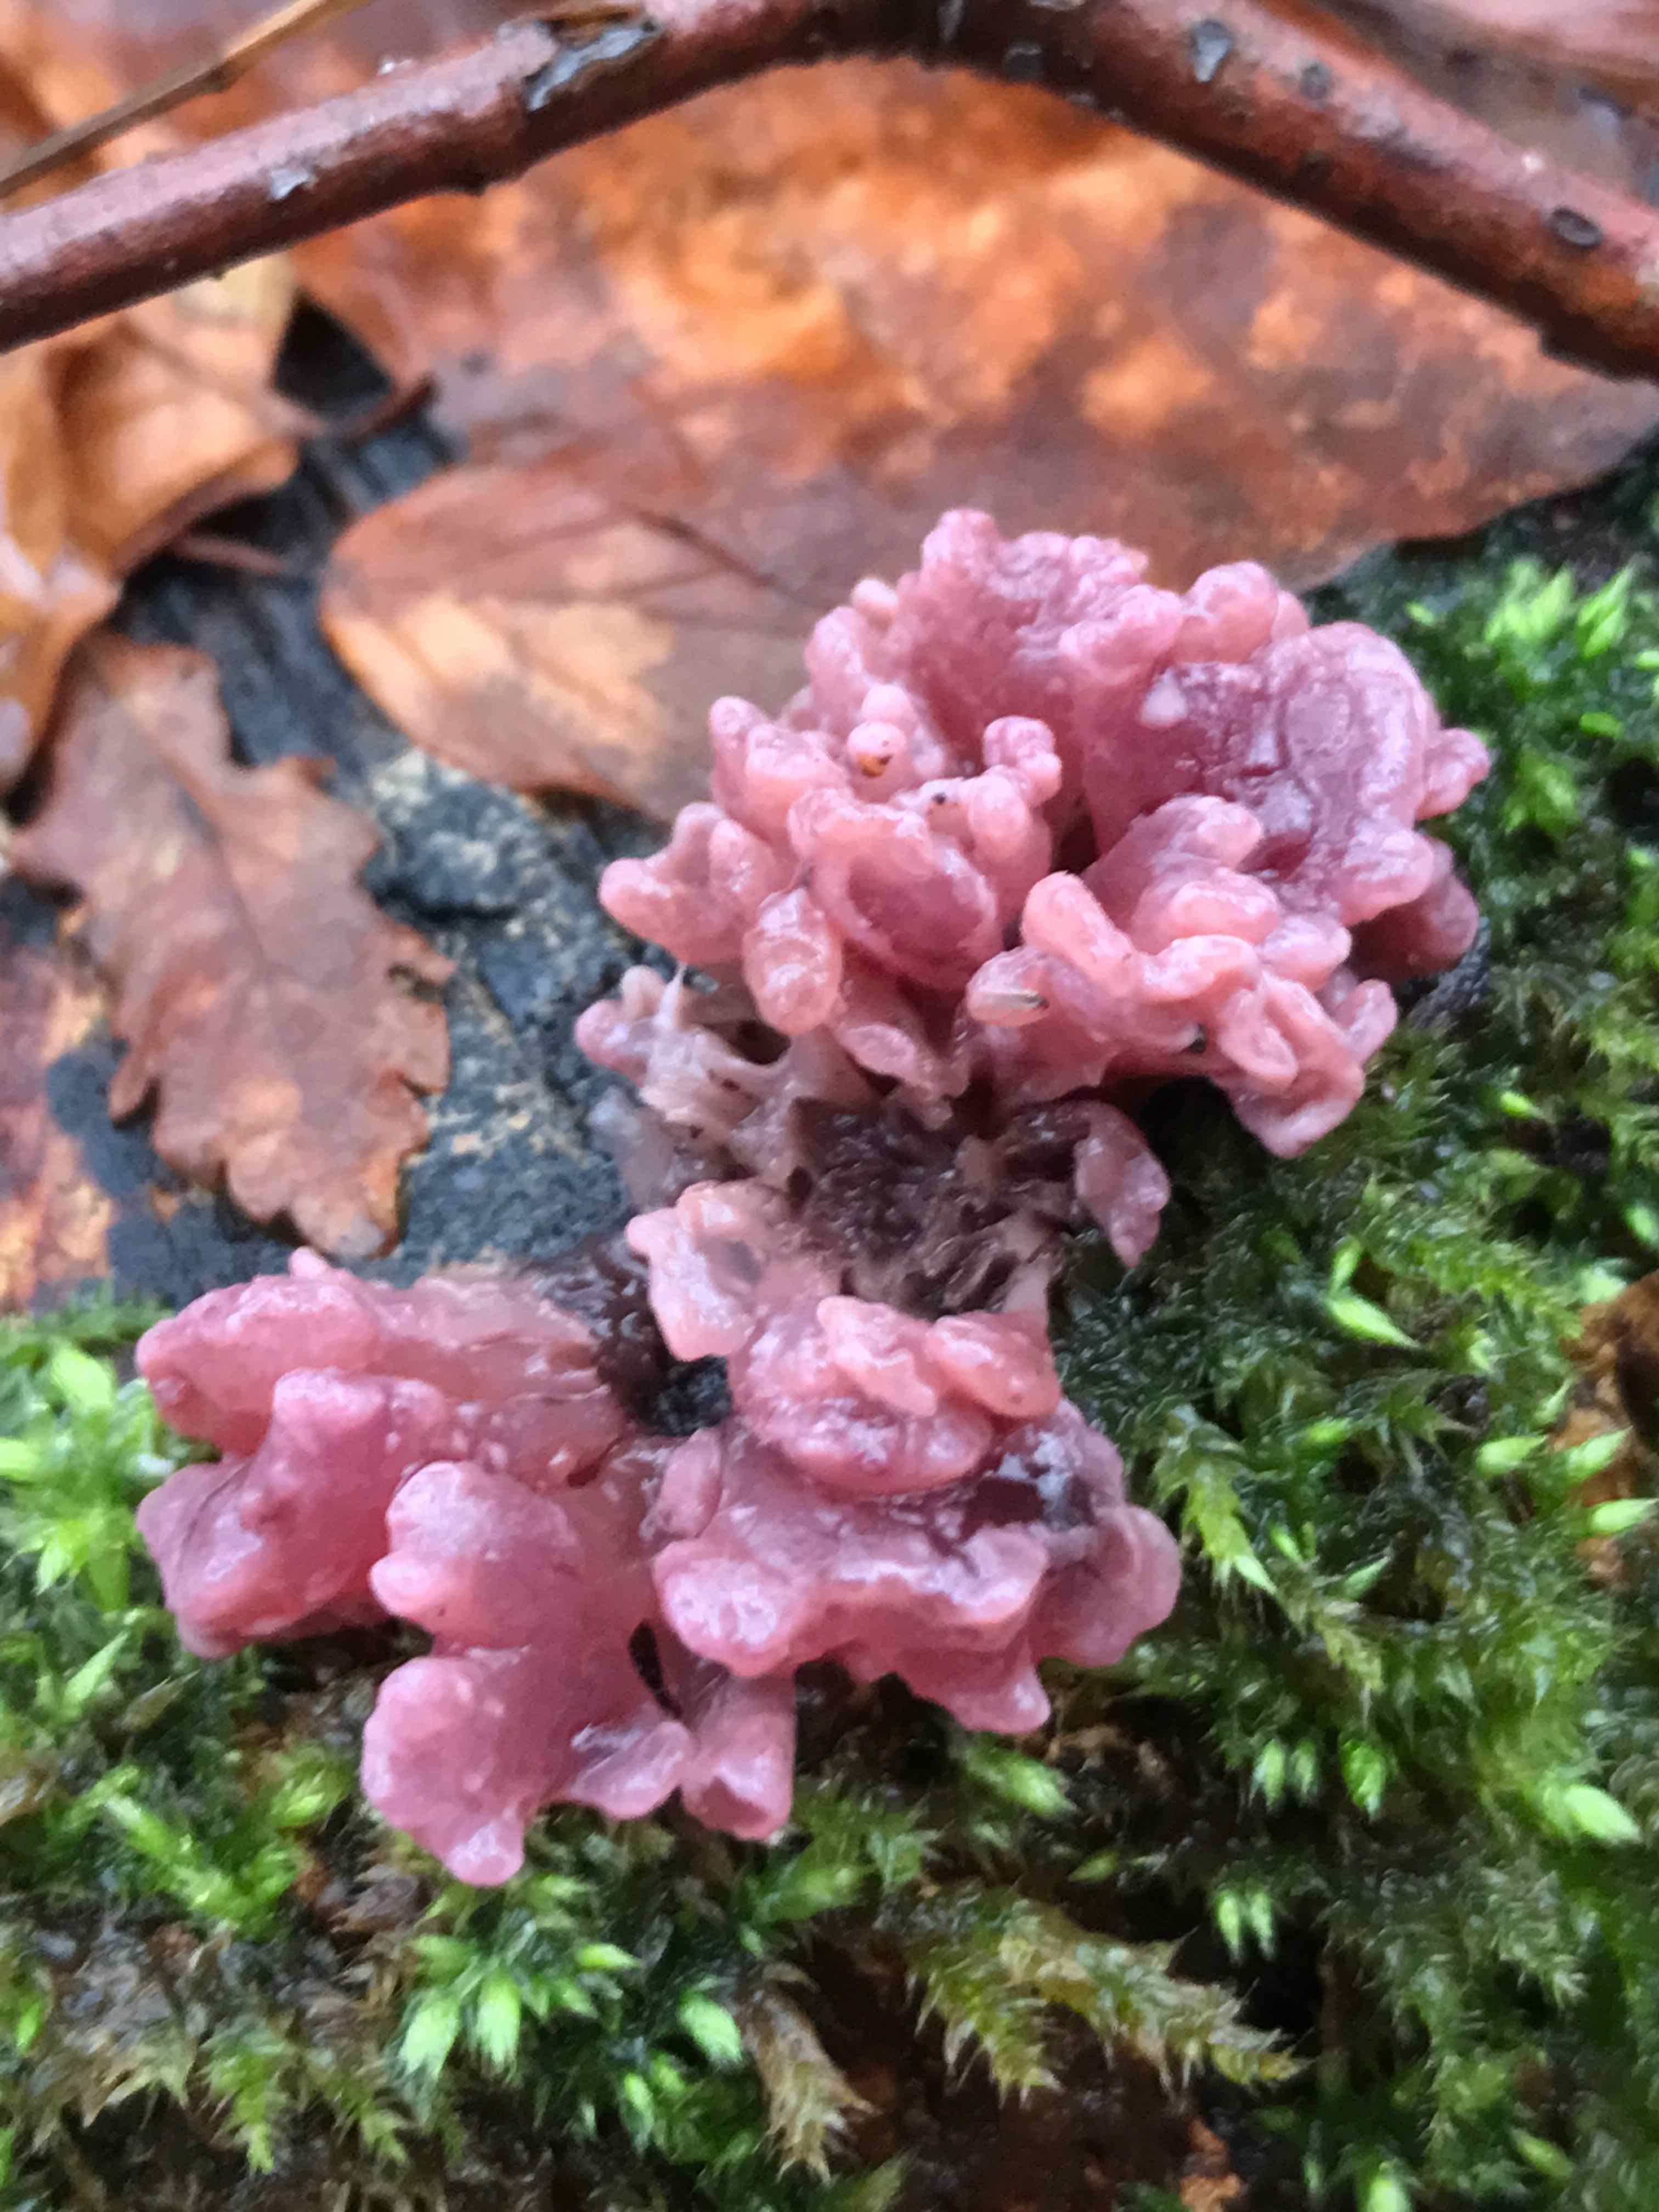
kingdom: Fungi
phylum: Ascomycota
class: Leotiomycetes
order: Helotiales
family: Gelatinodiscaceae
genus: Ascocoryne
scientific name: Ascocoryne sarcoides
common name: rødlilla sejskive
